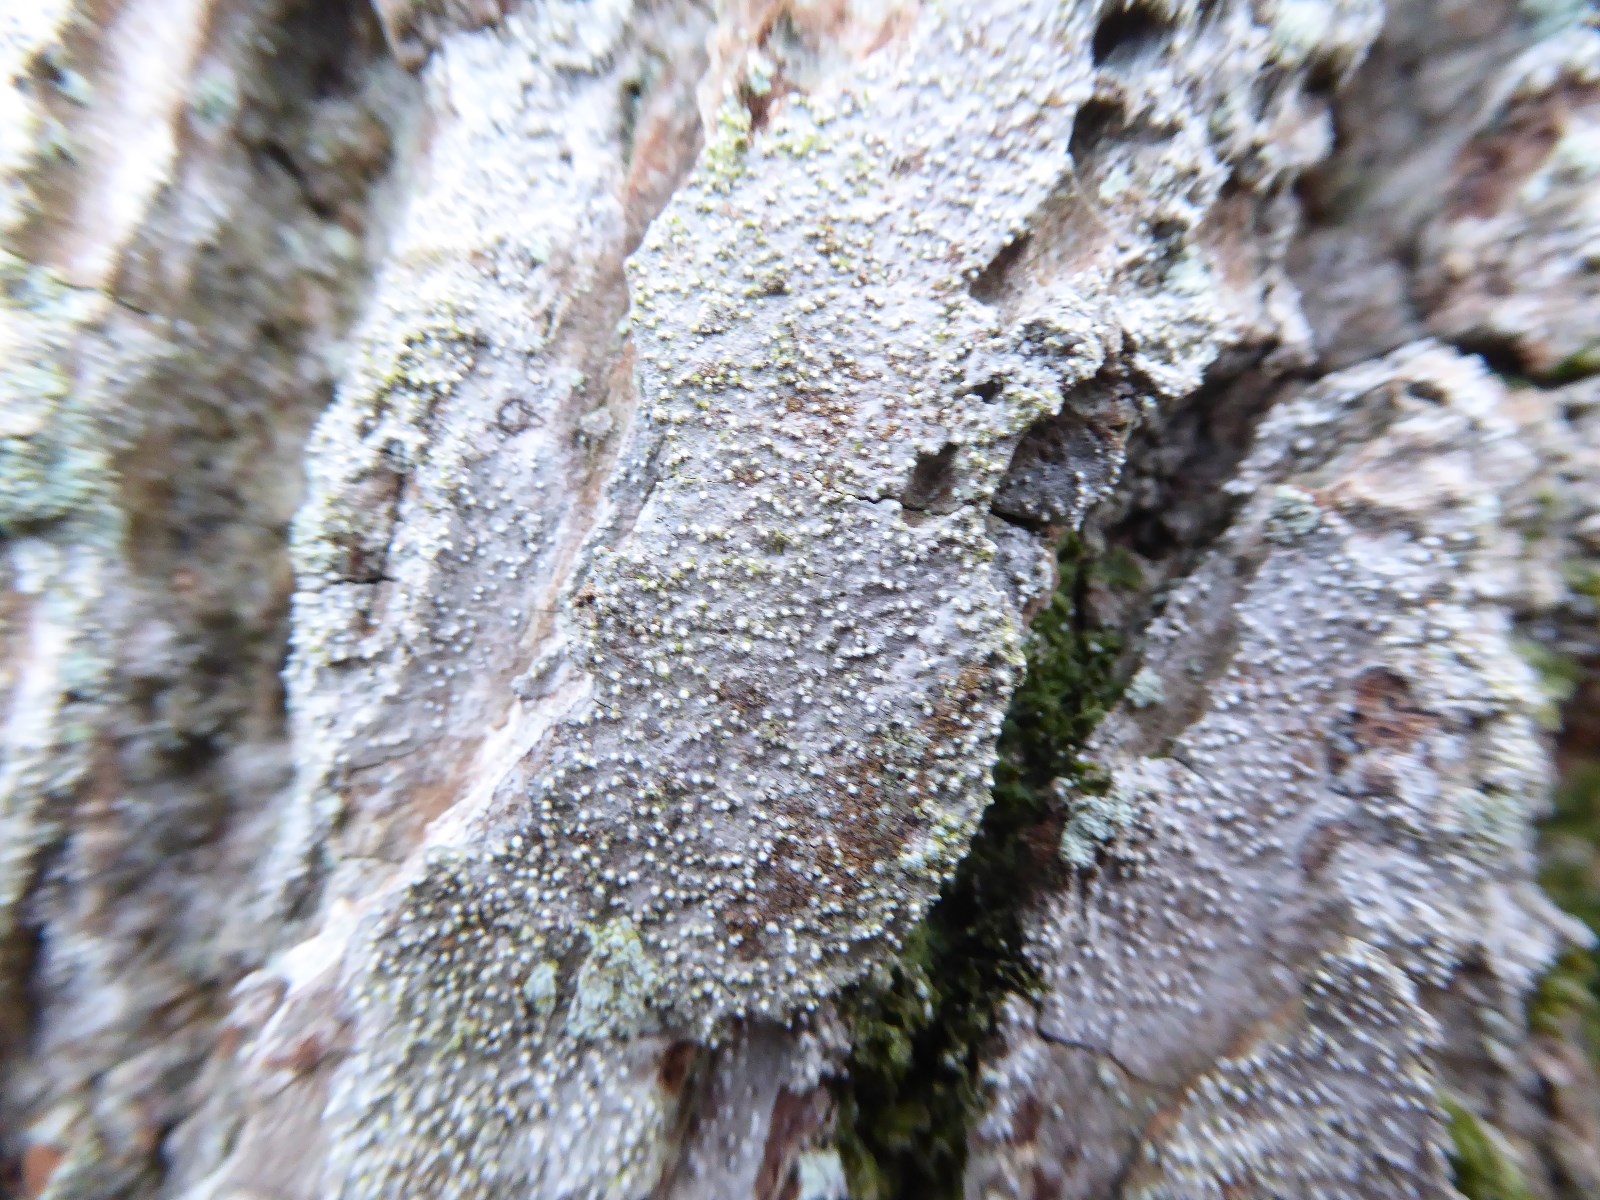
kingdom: Fungi
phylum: Ascomycota
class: Arthoniomycetes
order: Arthoniales
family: Opegraphaceae
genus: Opegrapha
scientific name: Opegrapha vermicellifera
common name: nåleprikket bogstavlav
